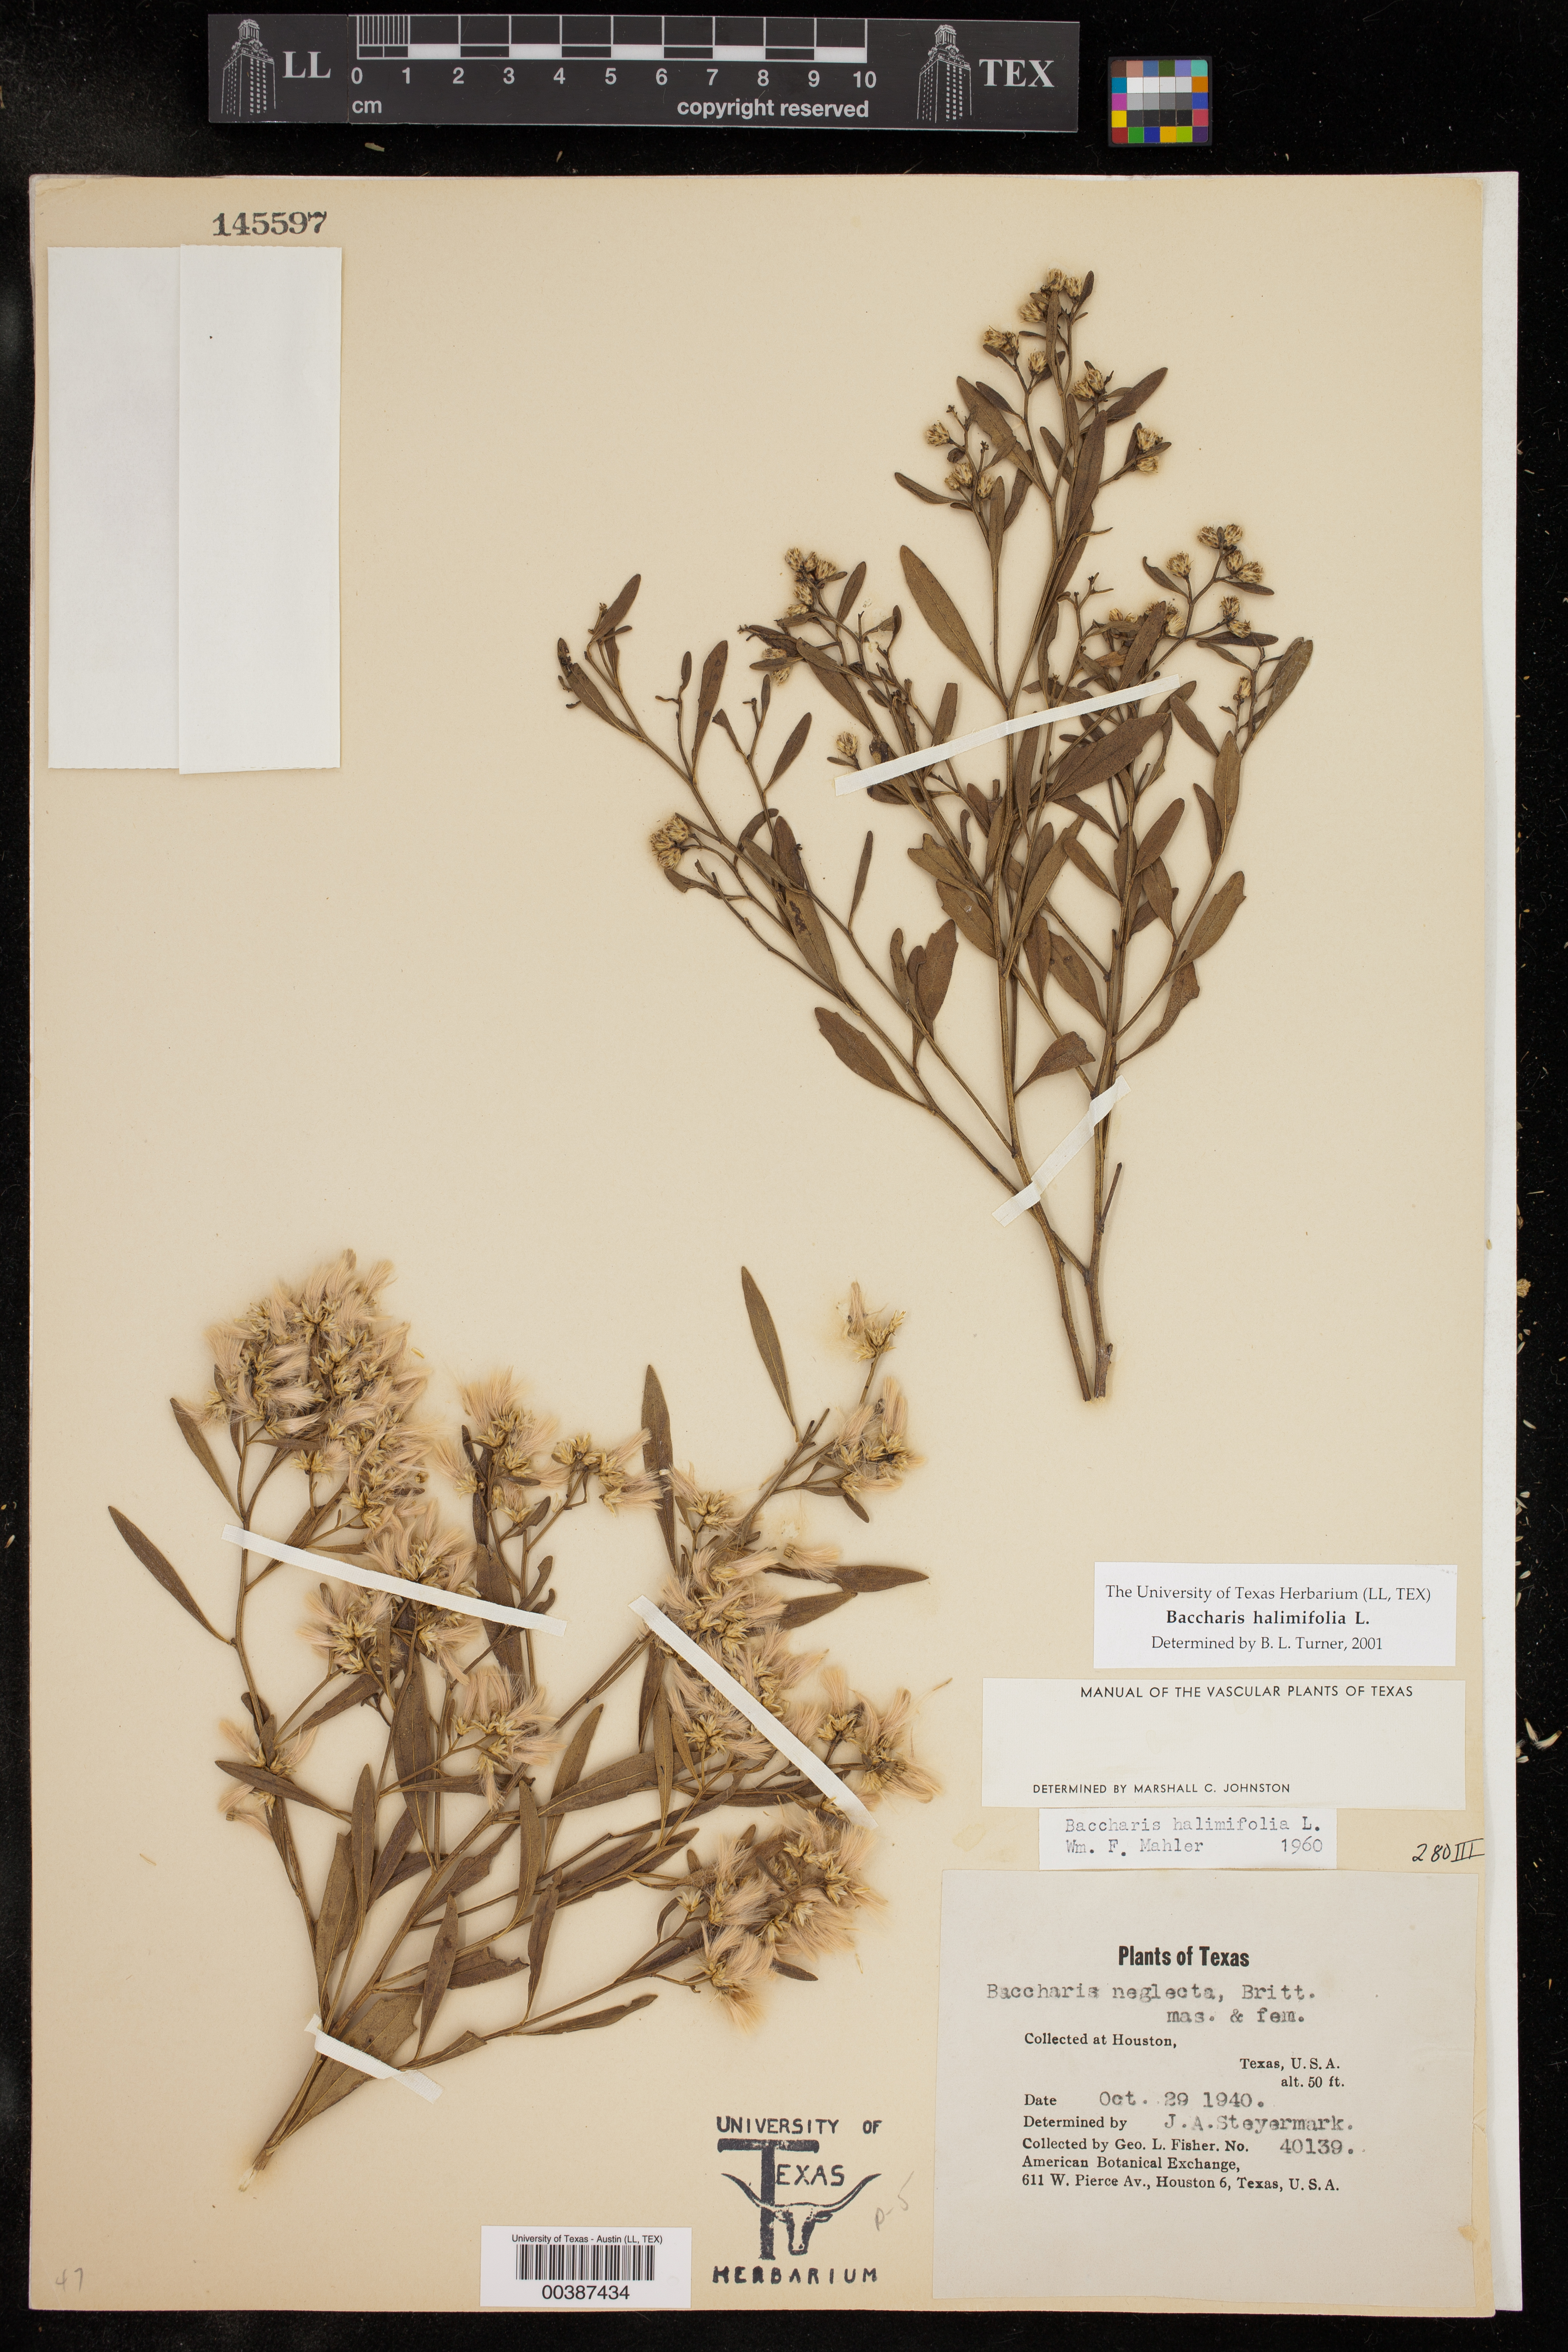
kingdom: Plantae
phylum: Tracheophyta
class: Magnoliopsida
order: Asterales
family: Asteraceae
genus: Baccharis
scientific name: Baccharis halimifolia
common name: Eastern baccharis
